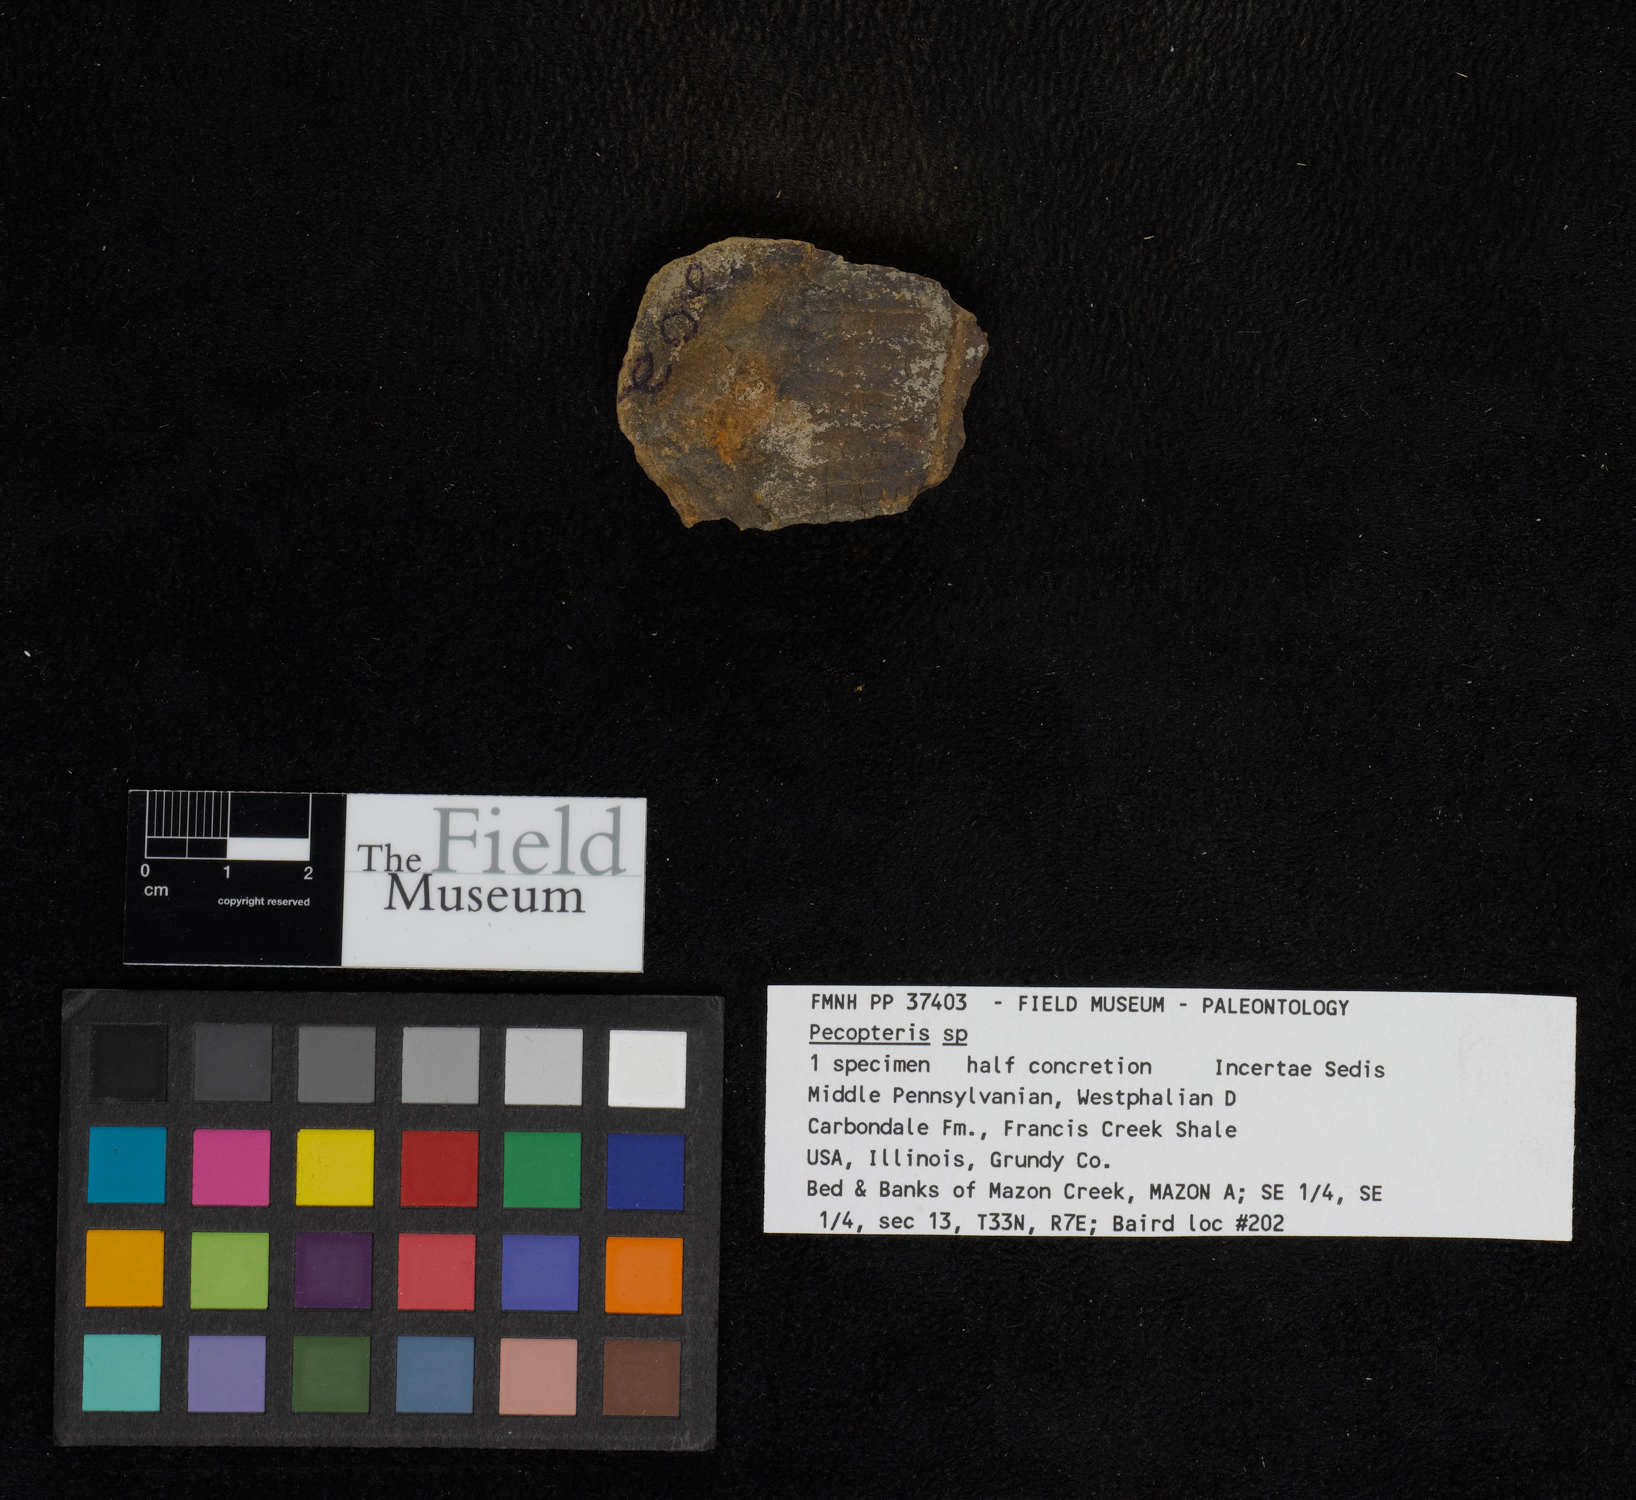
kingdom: Plantae
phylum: Tracheophyta
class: Polypodiopsida
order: Marattiales
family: Asterothecaceae
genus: Pecopteris
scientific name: Pecopteris
